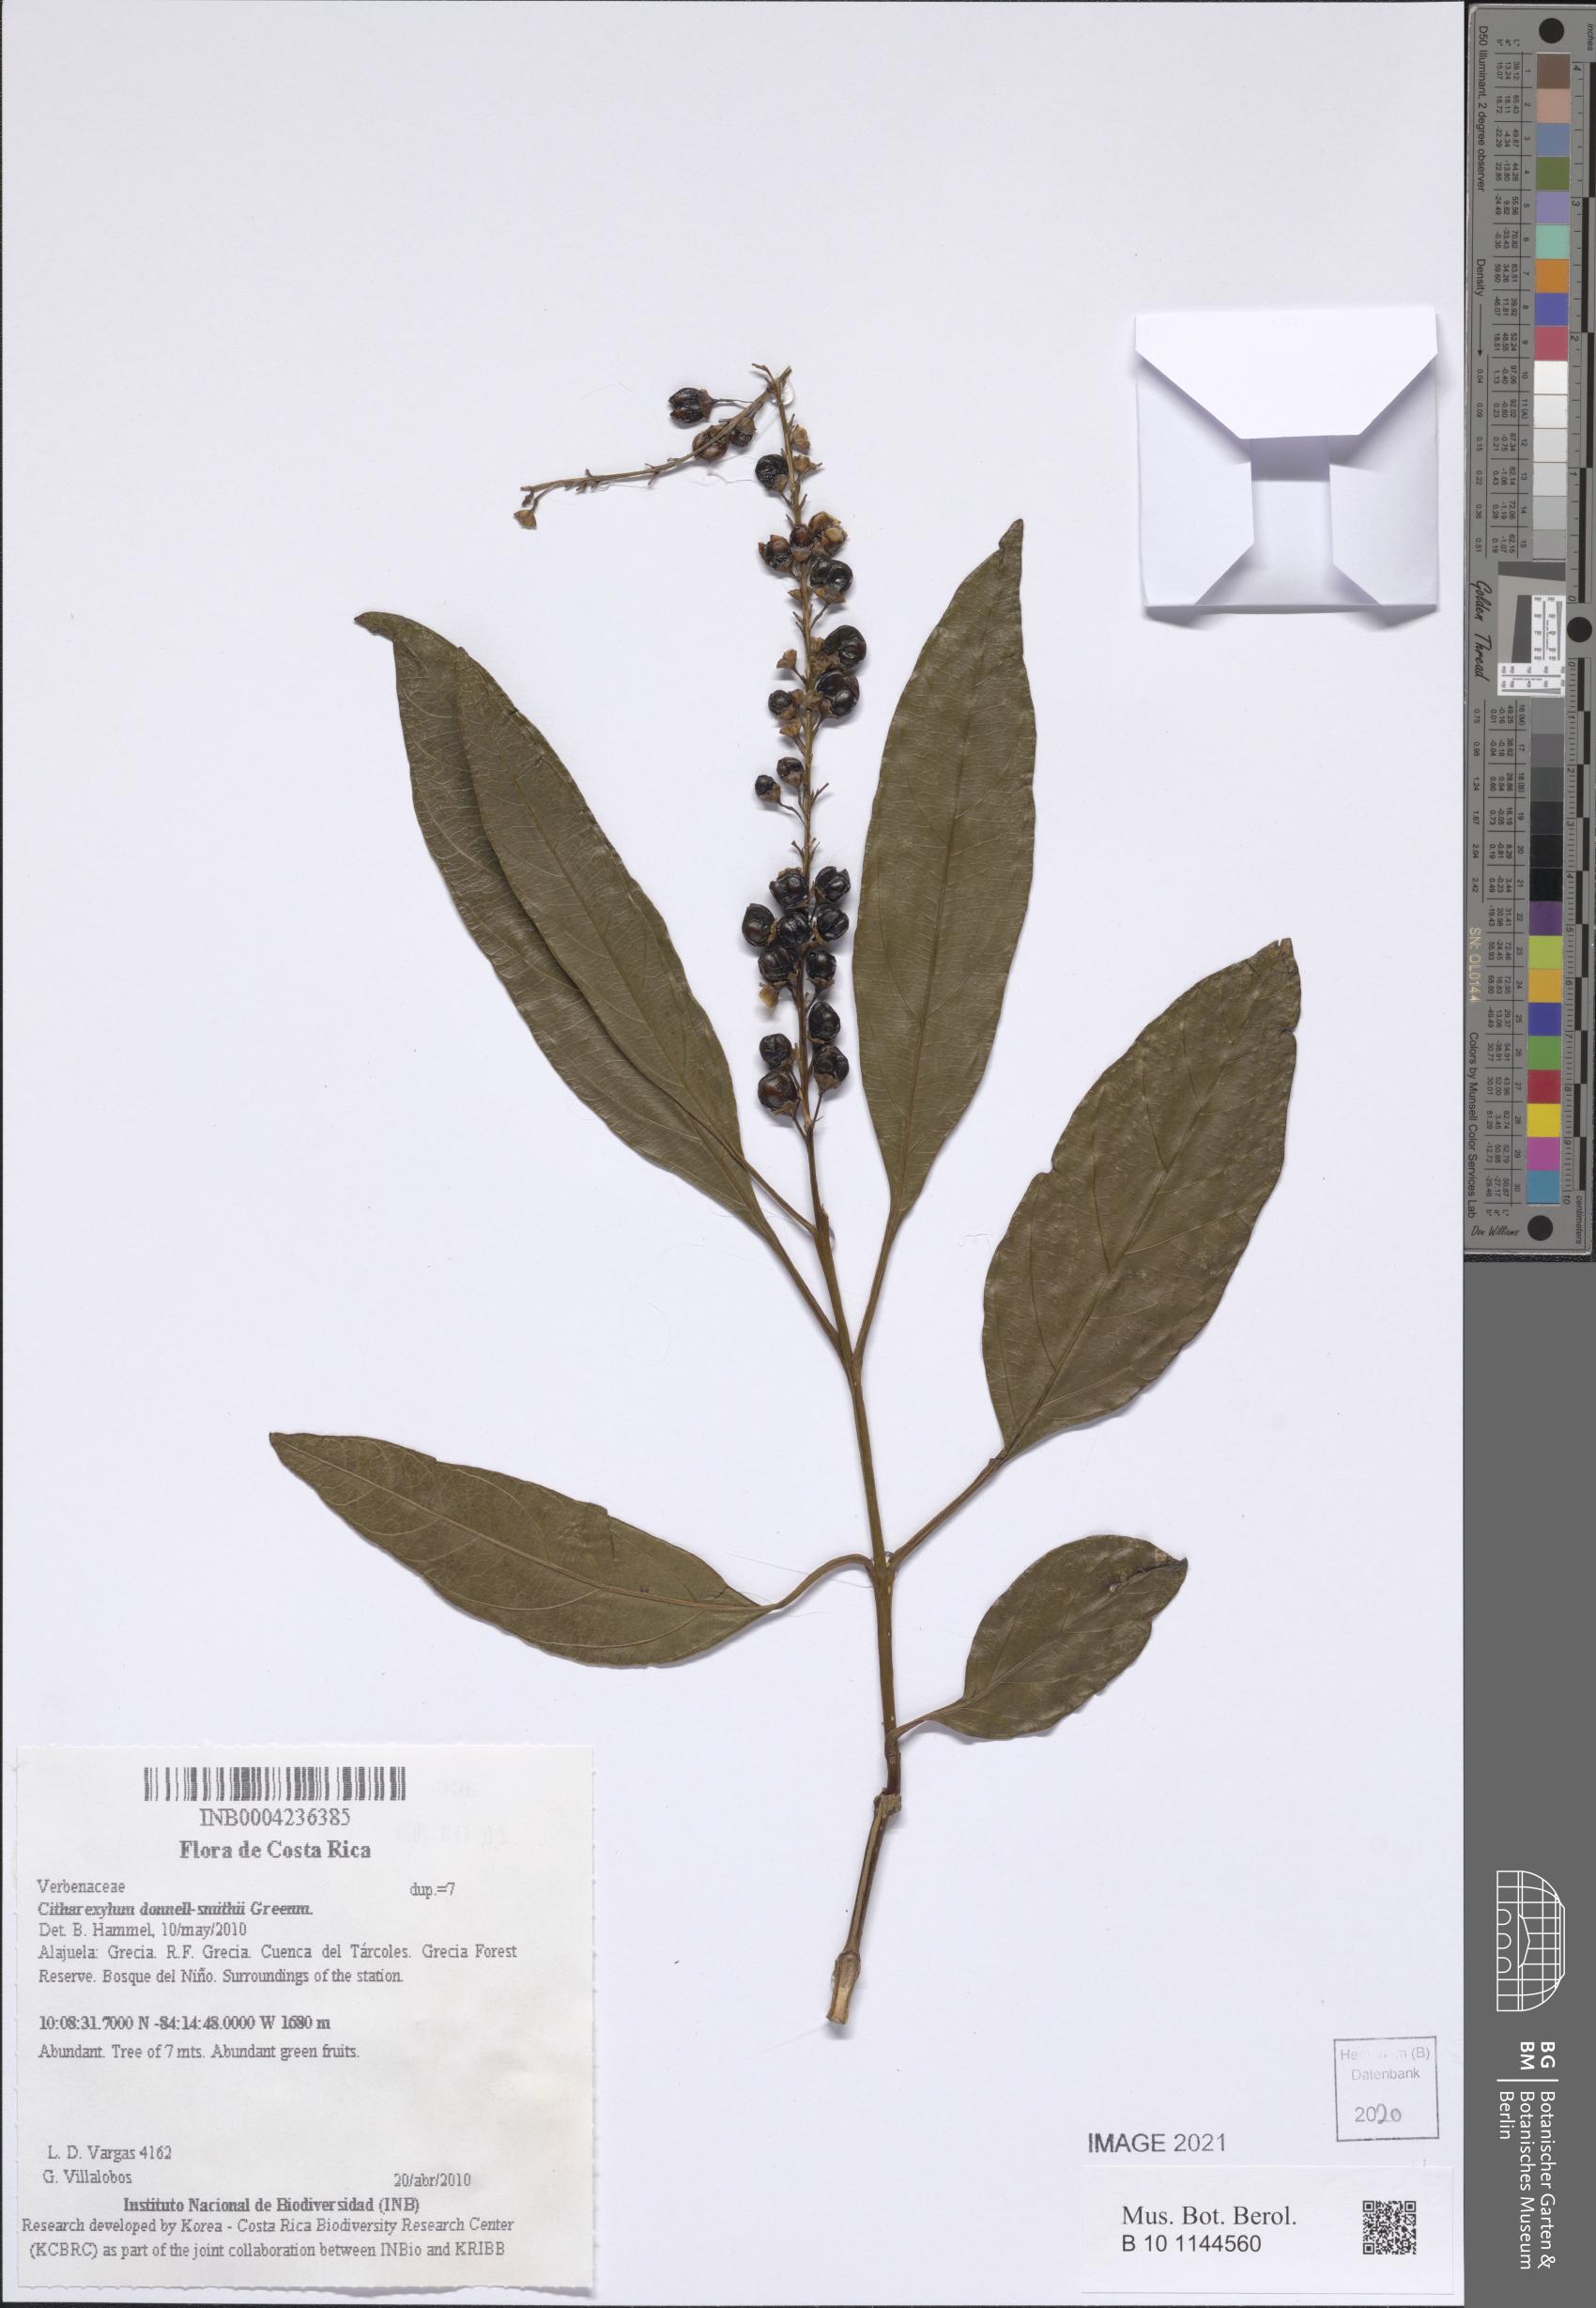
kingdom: Plantae
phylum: Tracheophyta
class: Magnoliopsida
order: Lamiales
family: Verbenaceae
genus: Citharexylum
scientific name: Citharexylum donnell-smithii
